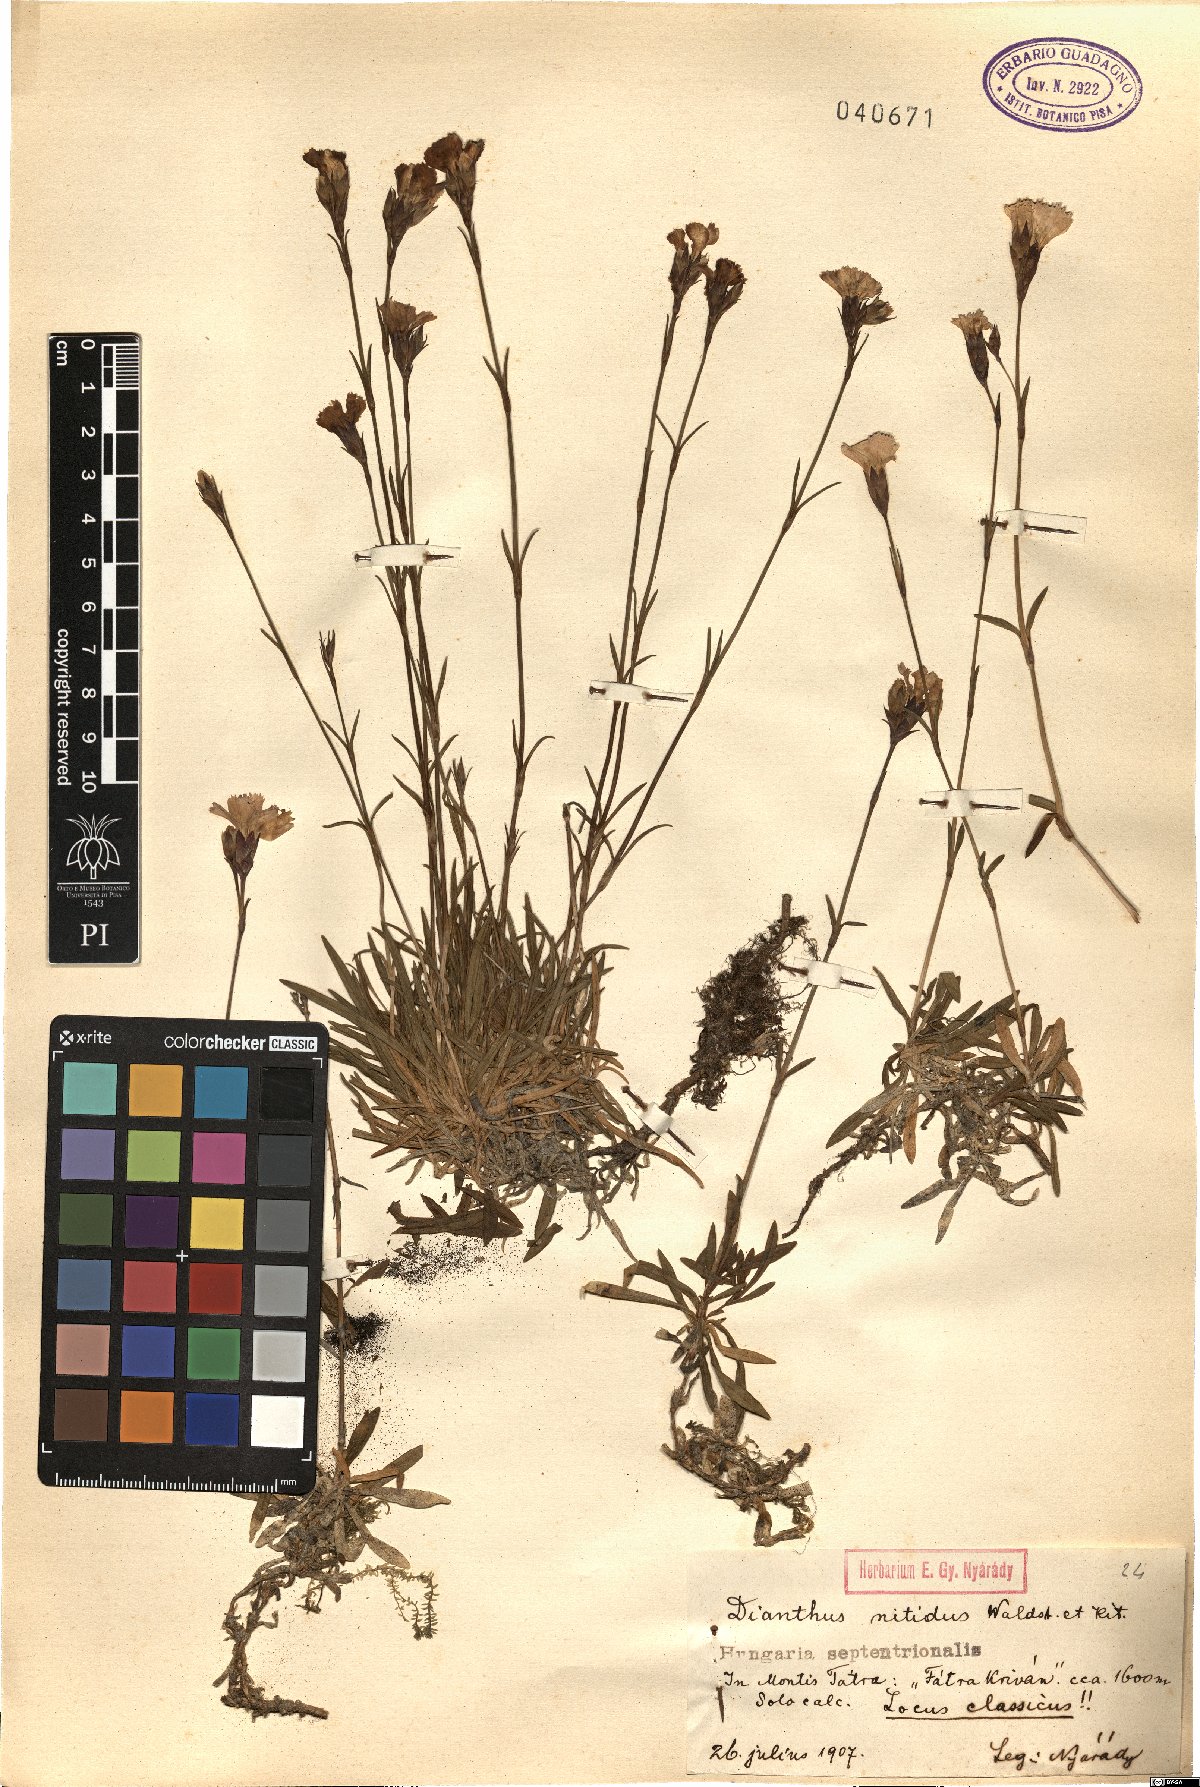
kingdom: Plantae
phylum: Tracheophyta
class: Magnoliopsida
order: Caryophyllales
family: Caryophyllaceae
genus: Dianthus
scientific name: Dianthus nitidus
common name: Carpathian glossy pink
